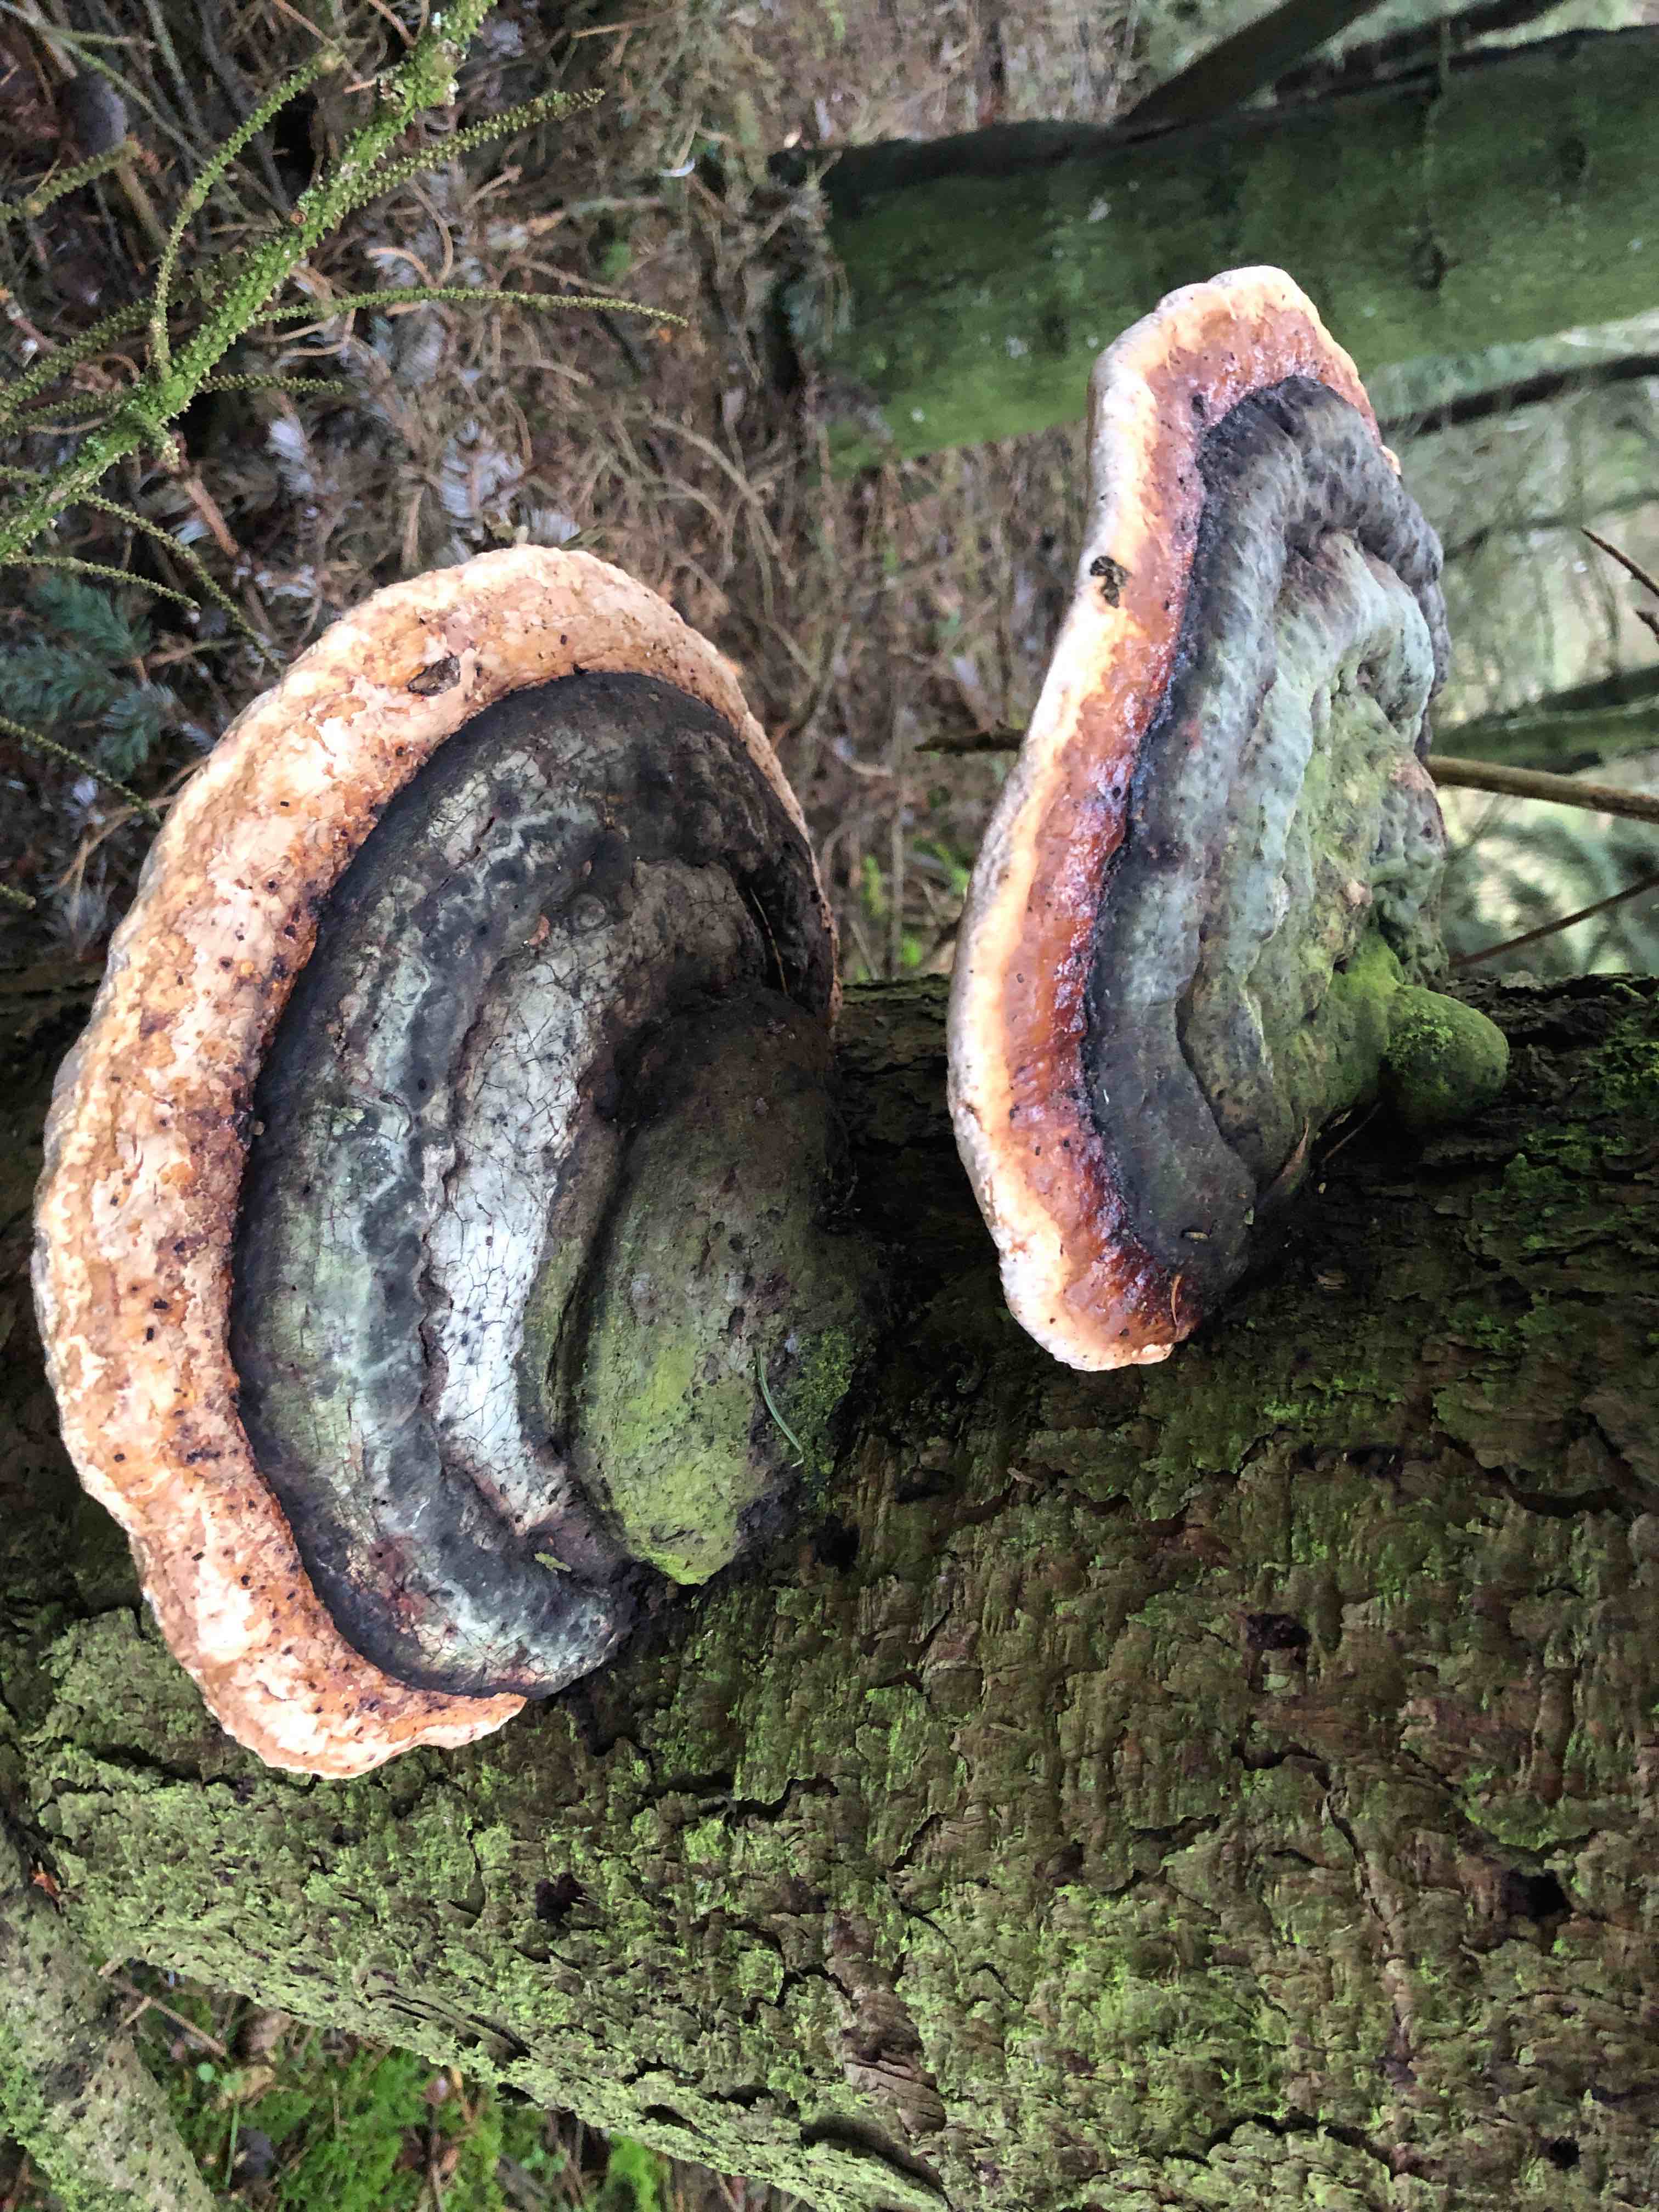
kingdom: Fungi
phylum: Basidiomycota
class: Agaricomycetes
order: Polyporales
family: Fomitopsidaceae
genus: Fomitopsis
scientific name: Fomitopsis pinicola
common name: randbæltet hovporesvamp
